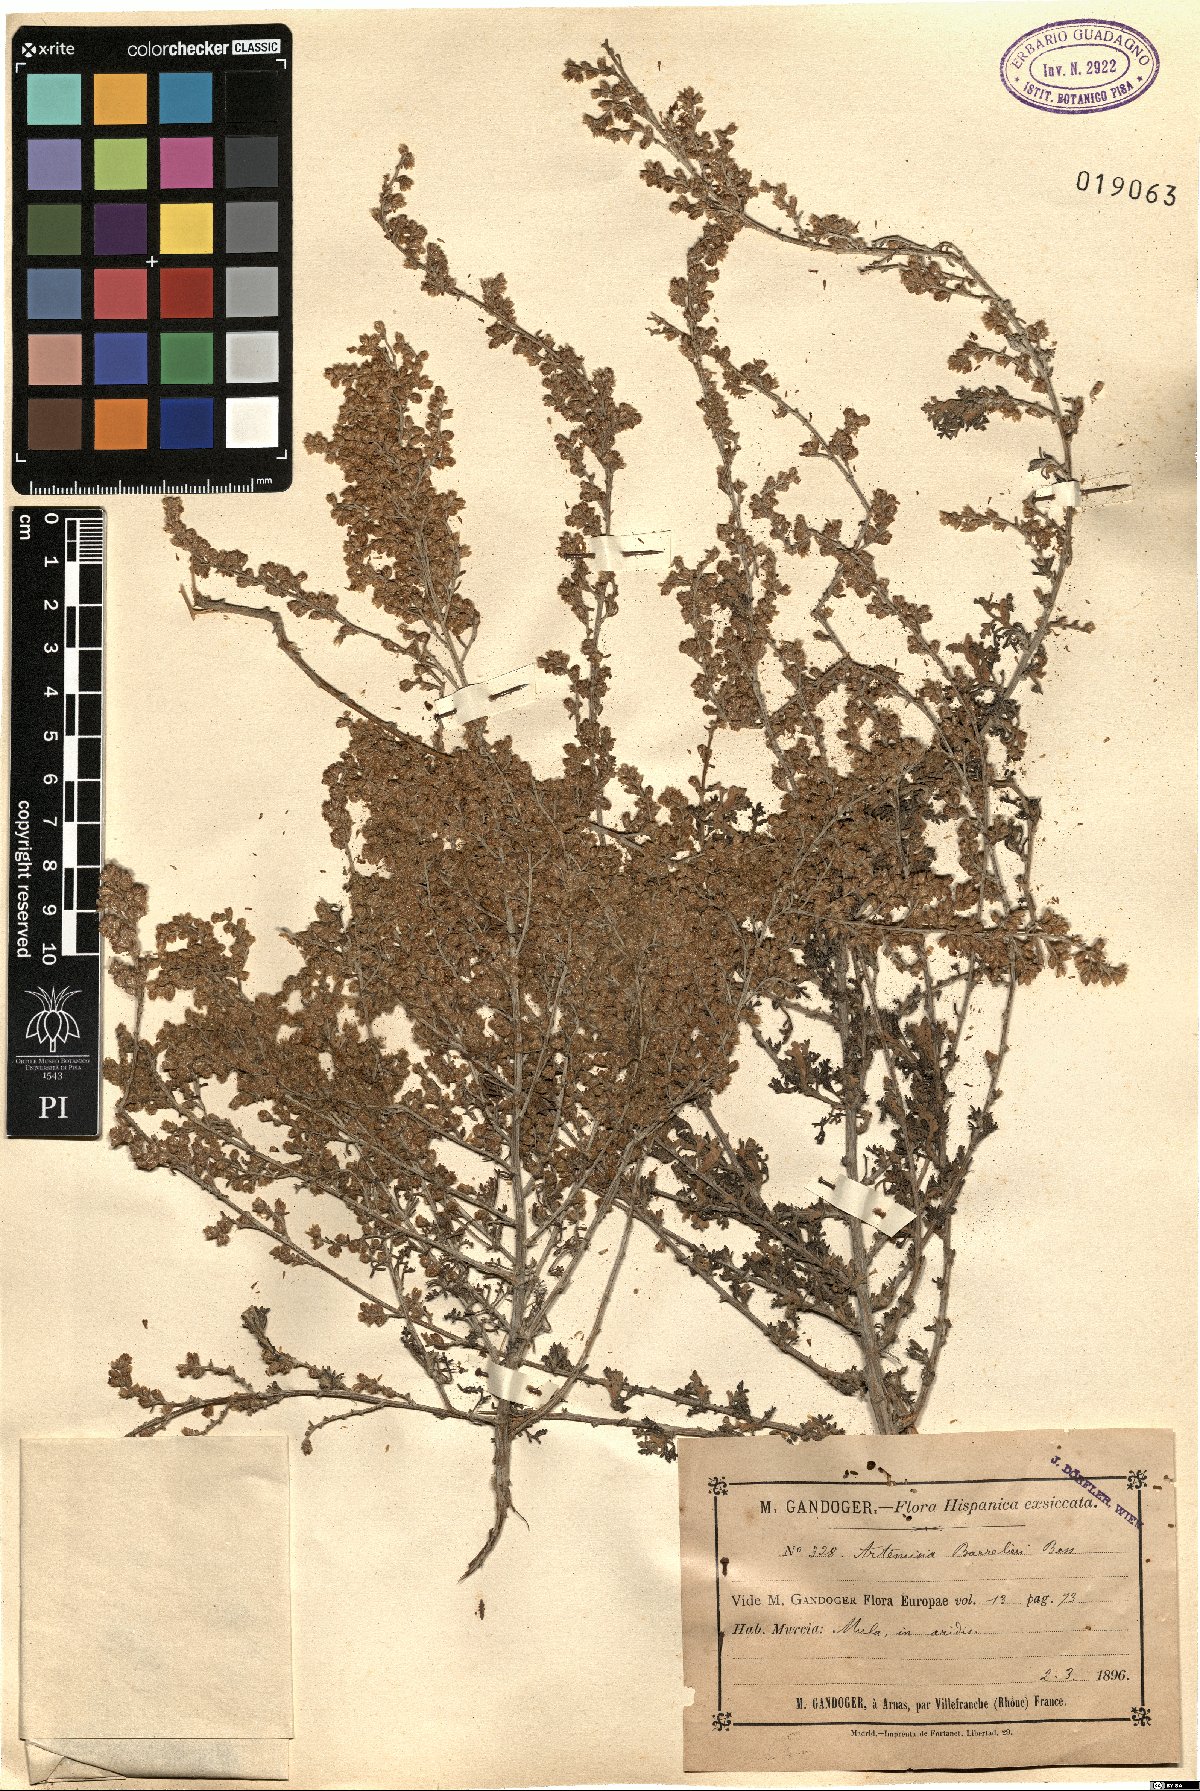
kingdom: Plantae
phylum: Tracheophyta
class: Magnoliopsida
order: Asterales
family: Asteraceae
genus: Artemisia
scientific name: Artemisia barrelieri
